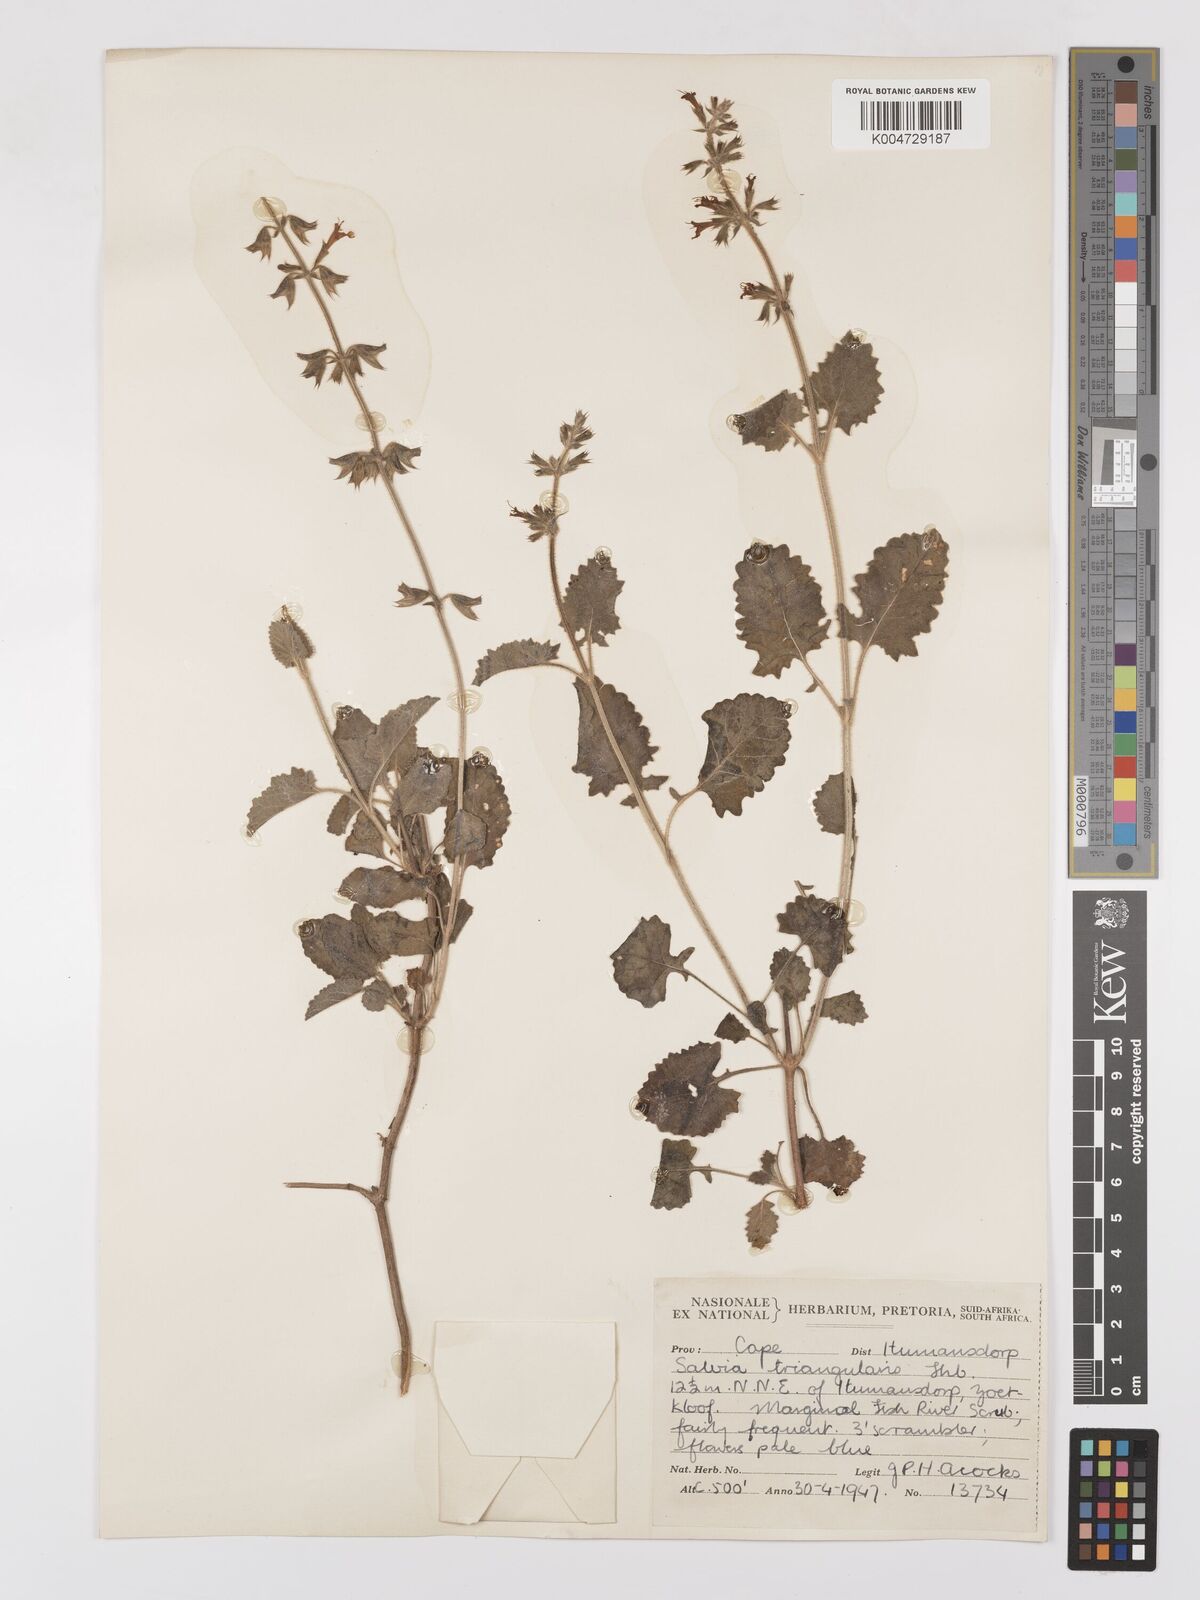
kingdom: Plantae
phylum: Tracheophyta
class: Magnoliopsida
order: Lamiales
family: Lamiaceae
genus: Salvia
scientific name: Salvia triangularis
